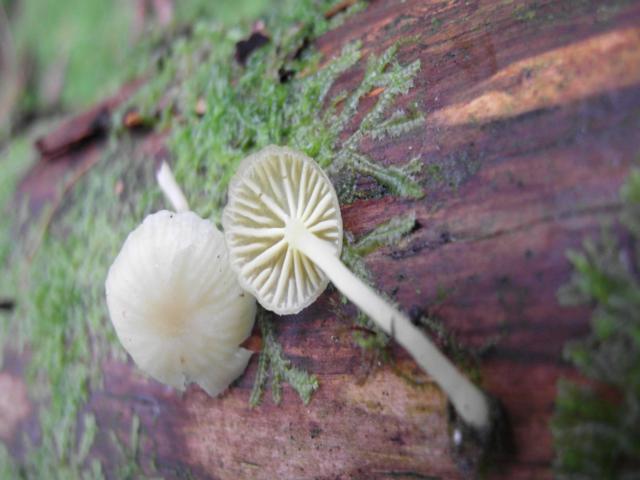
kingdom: Fungi
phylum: Basidiomycota
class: Agaricomycetes
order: Agaricales
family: Hygrophoraceae
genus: Chrysomphalina
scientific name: Chrysomphalina grossula
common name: stød-gyldenblad
